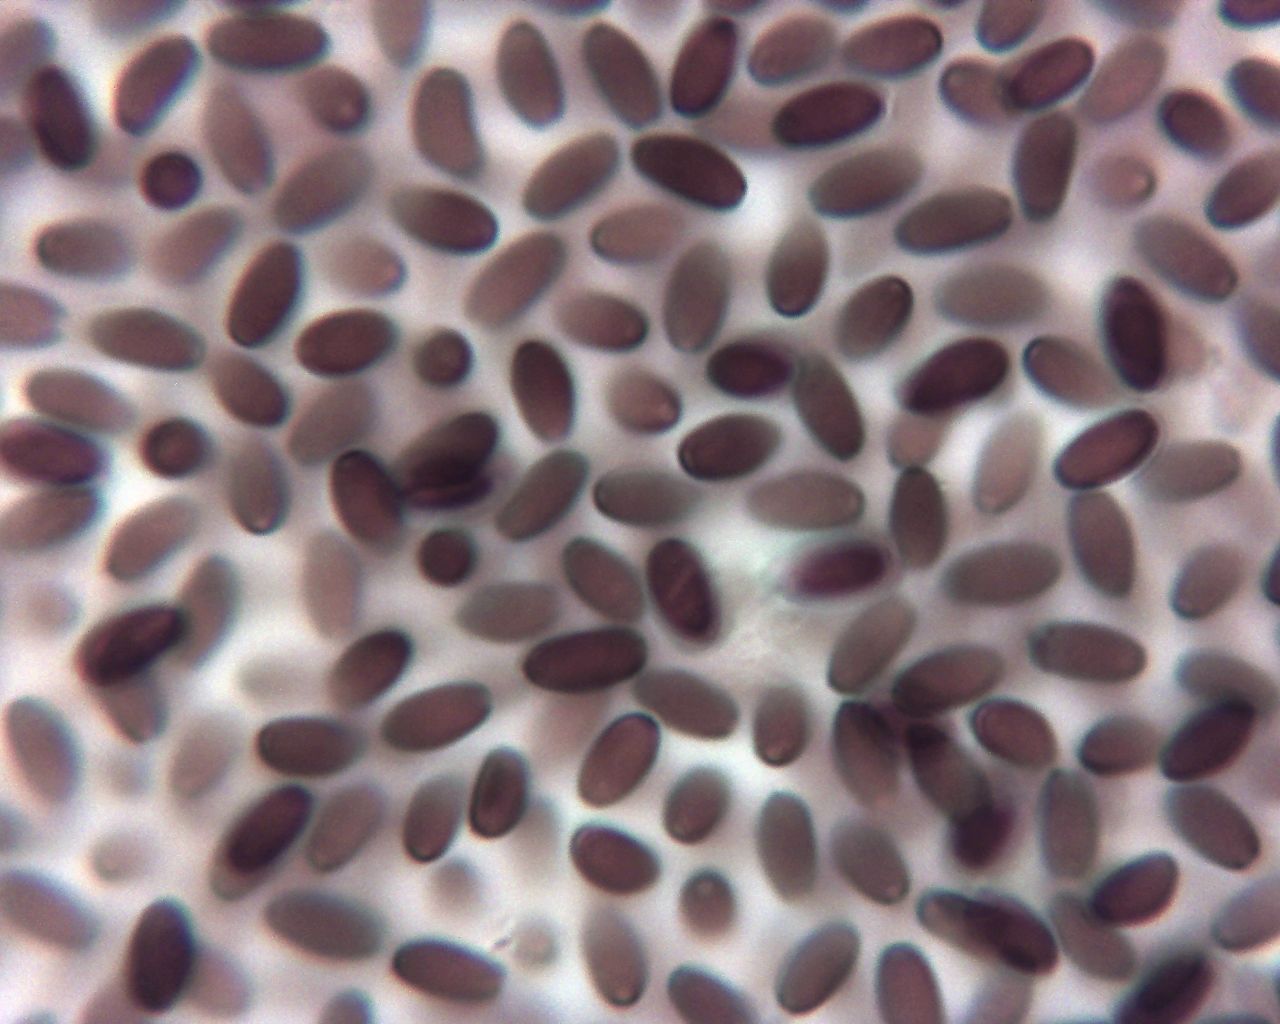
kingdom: Fungi
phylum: Basidiomycota
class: Agaricomycetes
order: Agaricales
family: Psathyrellaceae
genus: Tulosesus
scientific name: Tulosesus
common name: blækhat
